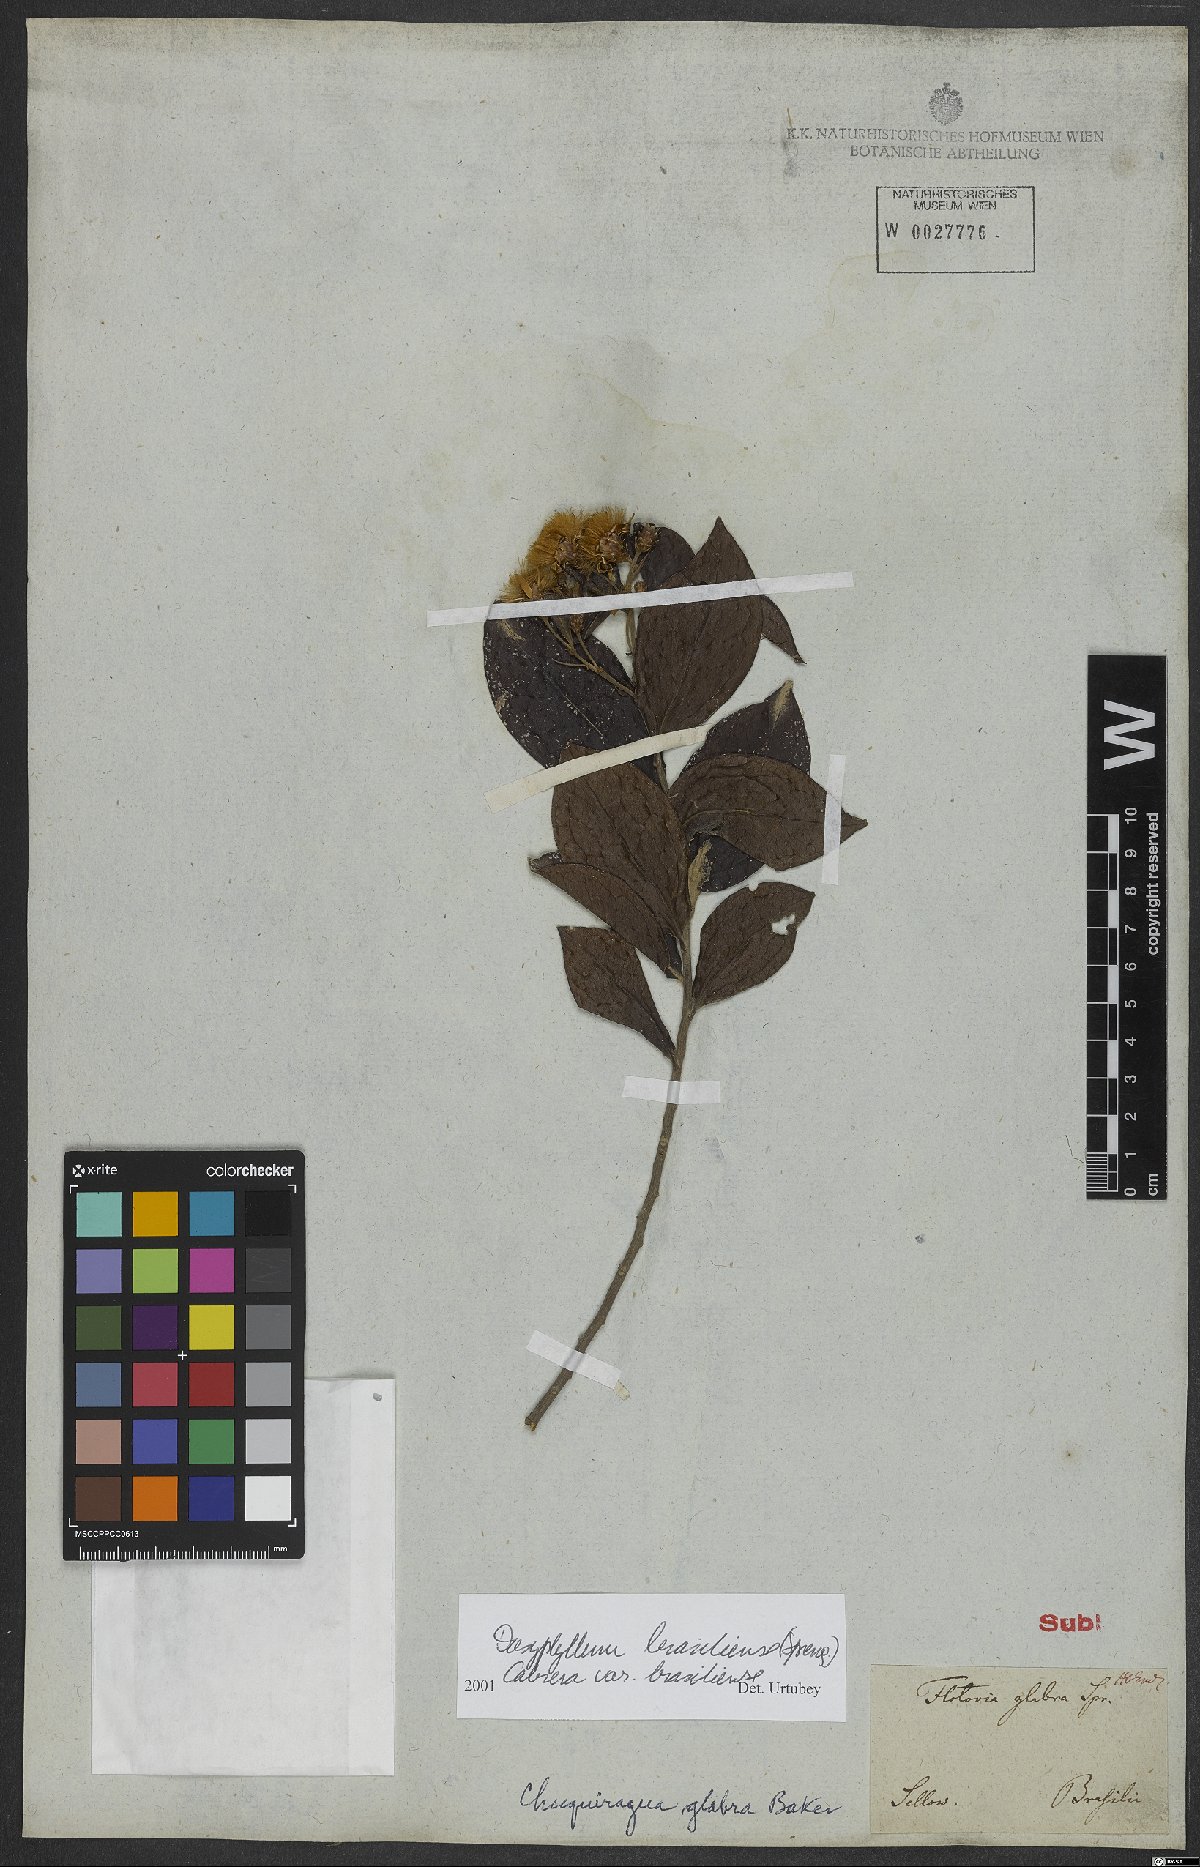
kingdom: Plantae
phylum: Tracheophyta
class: Magnoliopsida
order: Asterales
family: Asteraceae
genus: Dasyphyllum
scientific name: Dasyphyllum brasiliense
